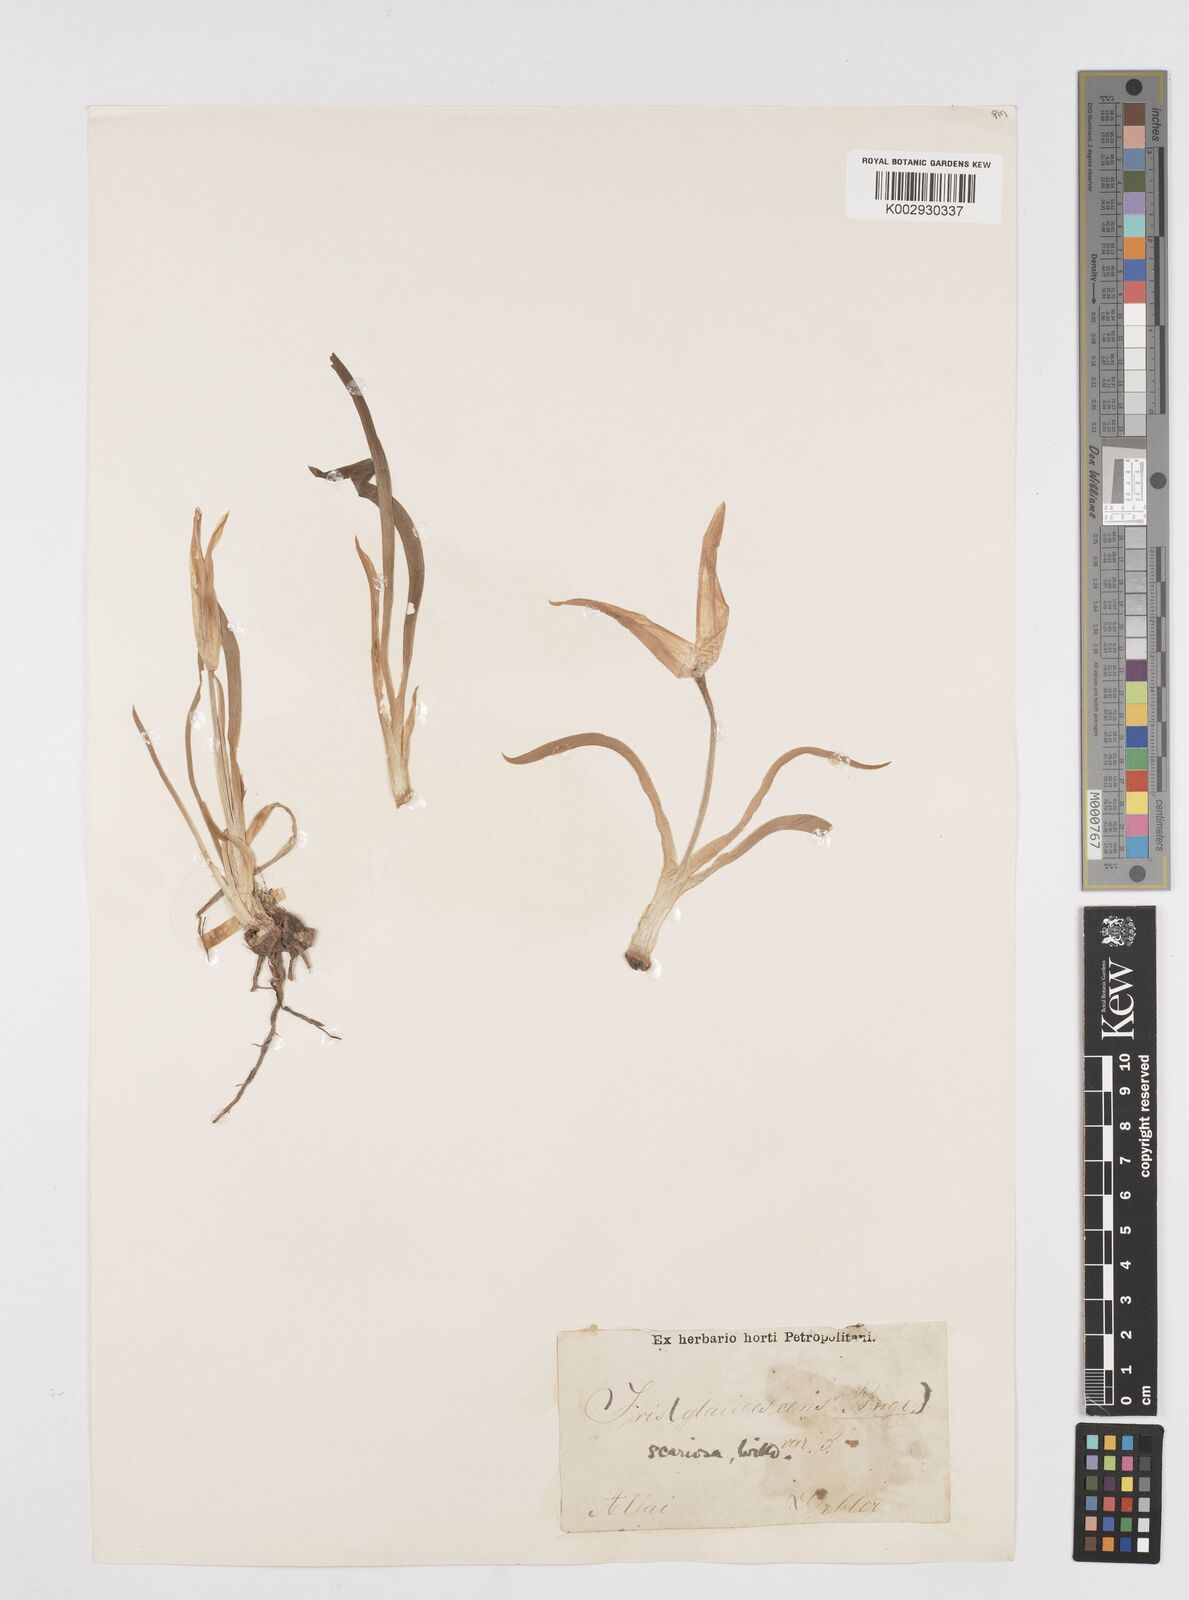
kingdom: Plantae
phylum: Tracheophyta
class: Liliopsida
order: Asparagales
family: Iridaceae
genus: Iris
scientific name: Iris scariosa
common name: Membrane-bract iris
